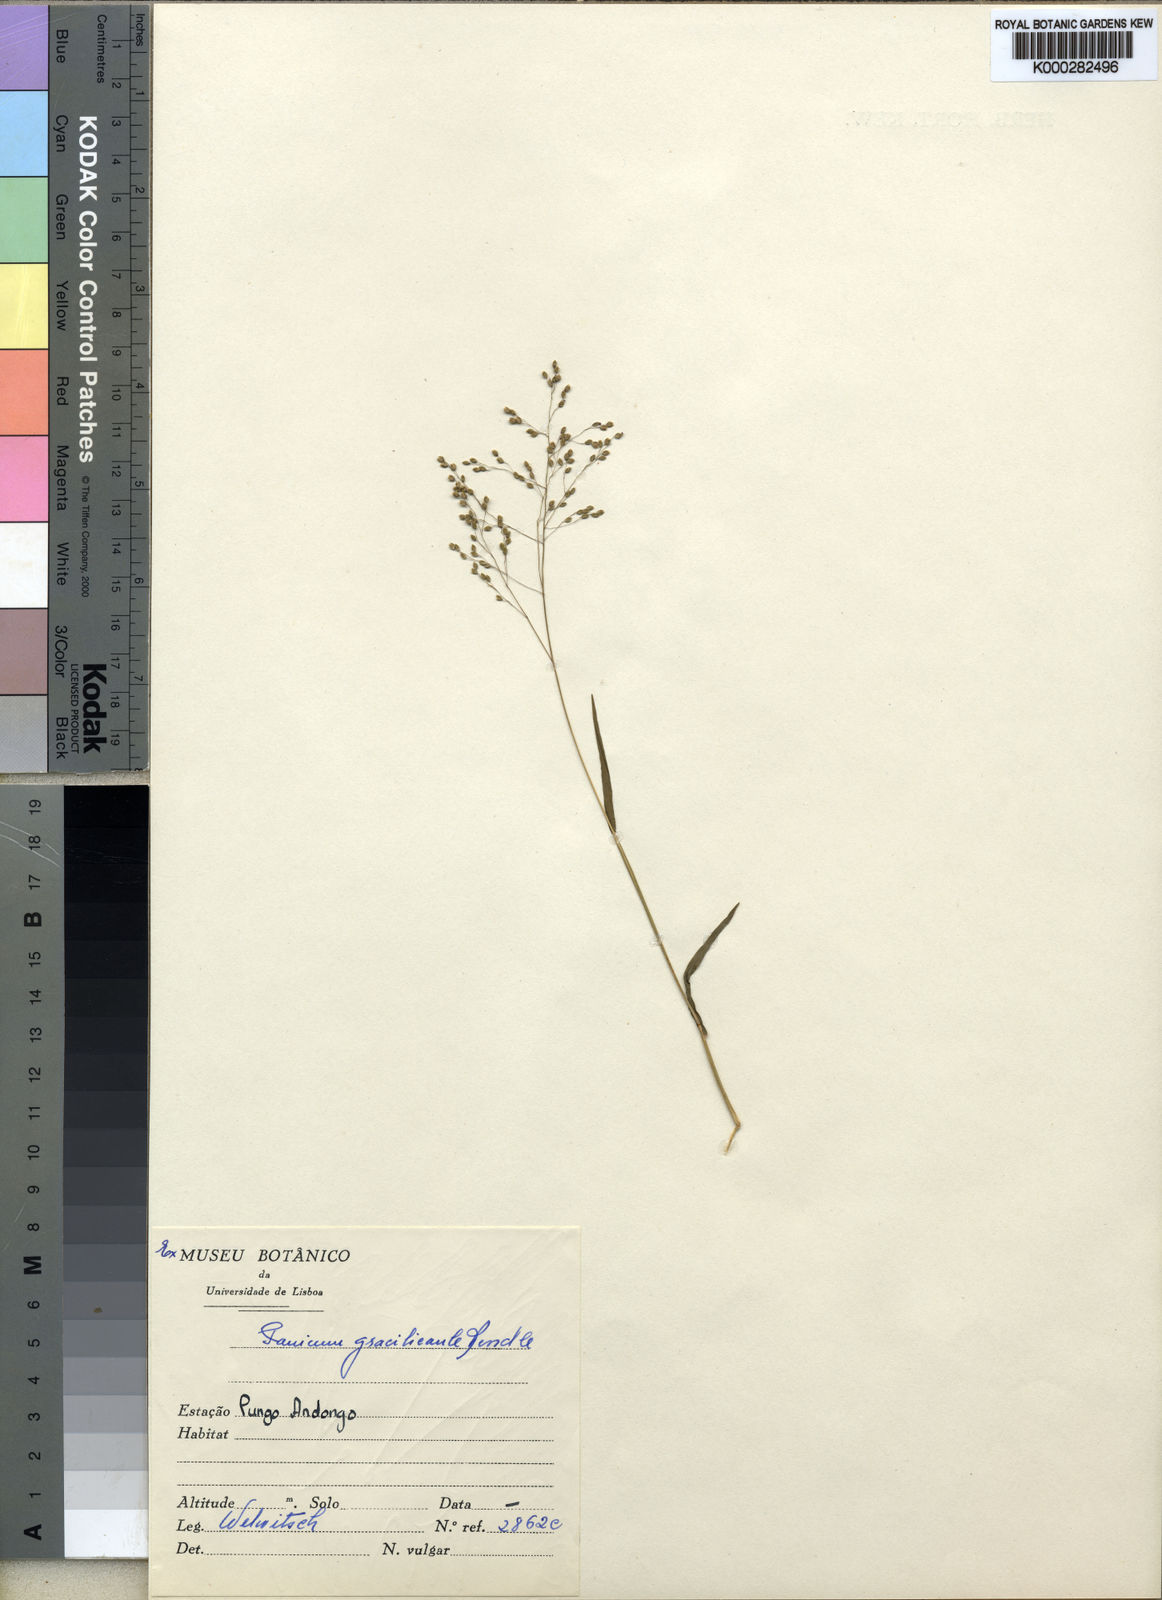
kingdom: Plantae
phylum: Tracheophyta
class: Liliopsida
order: Poales
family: Poaceae
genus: Trichanthecium
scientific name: Trichanthecium gracilicaule
